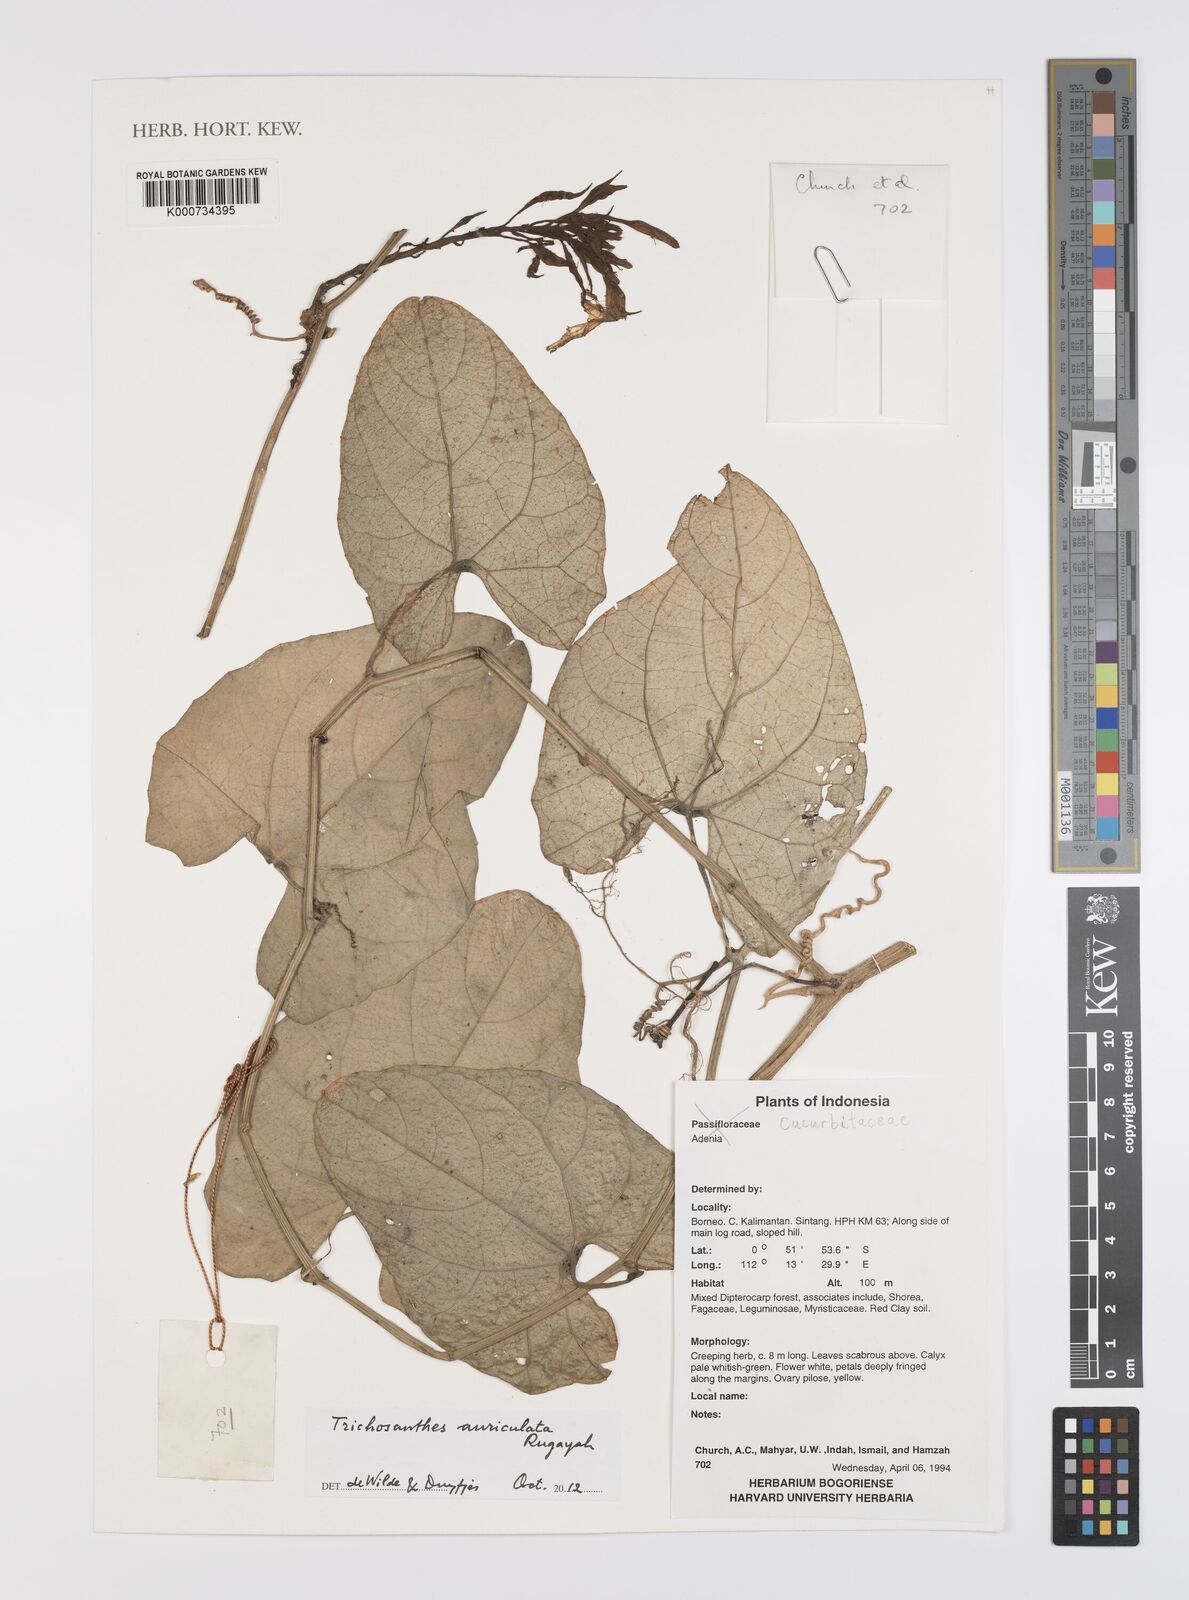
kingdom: Plantae
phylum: Tracheophyta
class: Magnoliopsida
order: Cucurbitales
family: Cucurbitaceae
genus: Trichosanthes
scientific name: Trichosanthes auriculata
